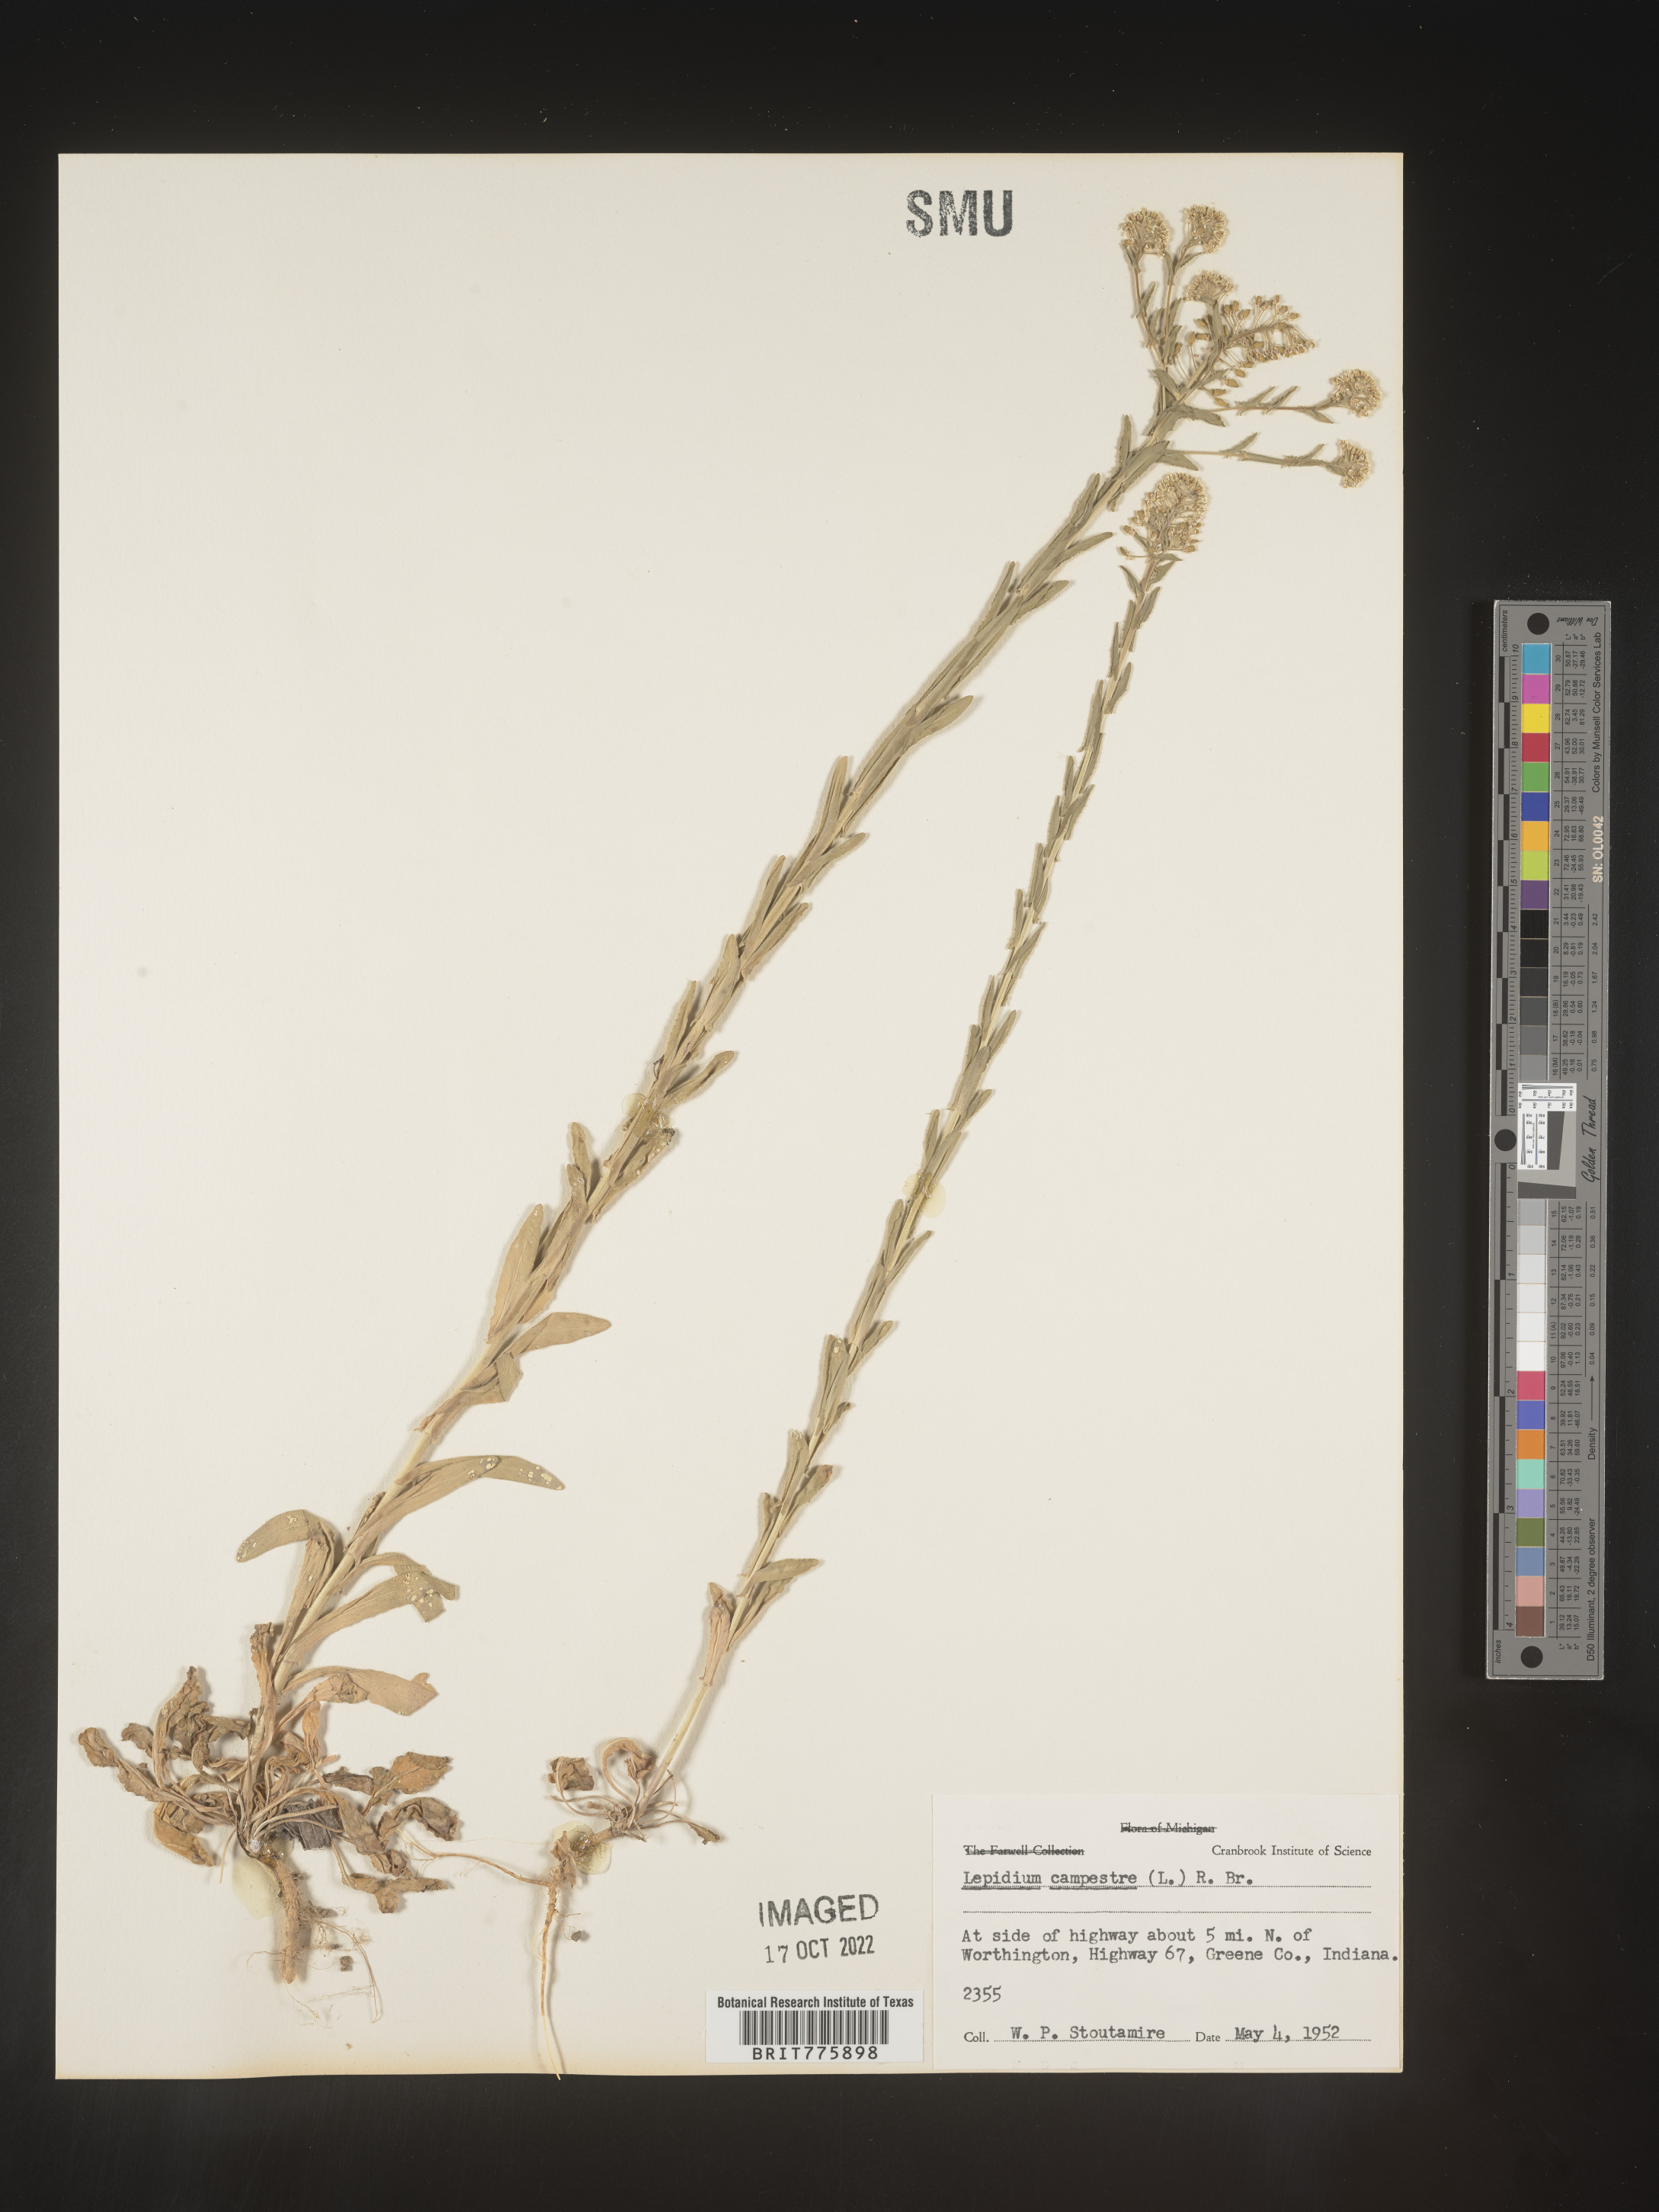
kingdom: Plantae
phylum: Tracheophyta
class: Magnoliopsida
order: Brassicales
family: Brassicaceae
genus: Lepidium
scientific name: Lepidium campestre
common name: Field pepperwort
